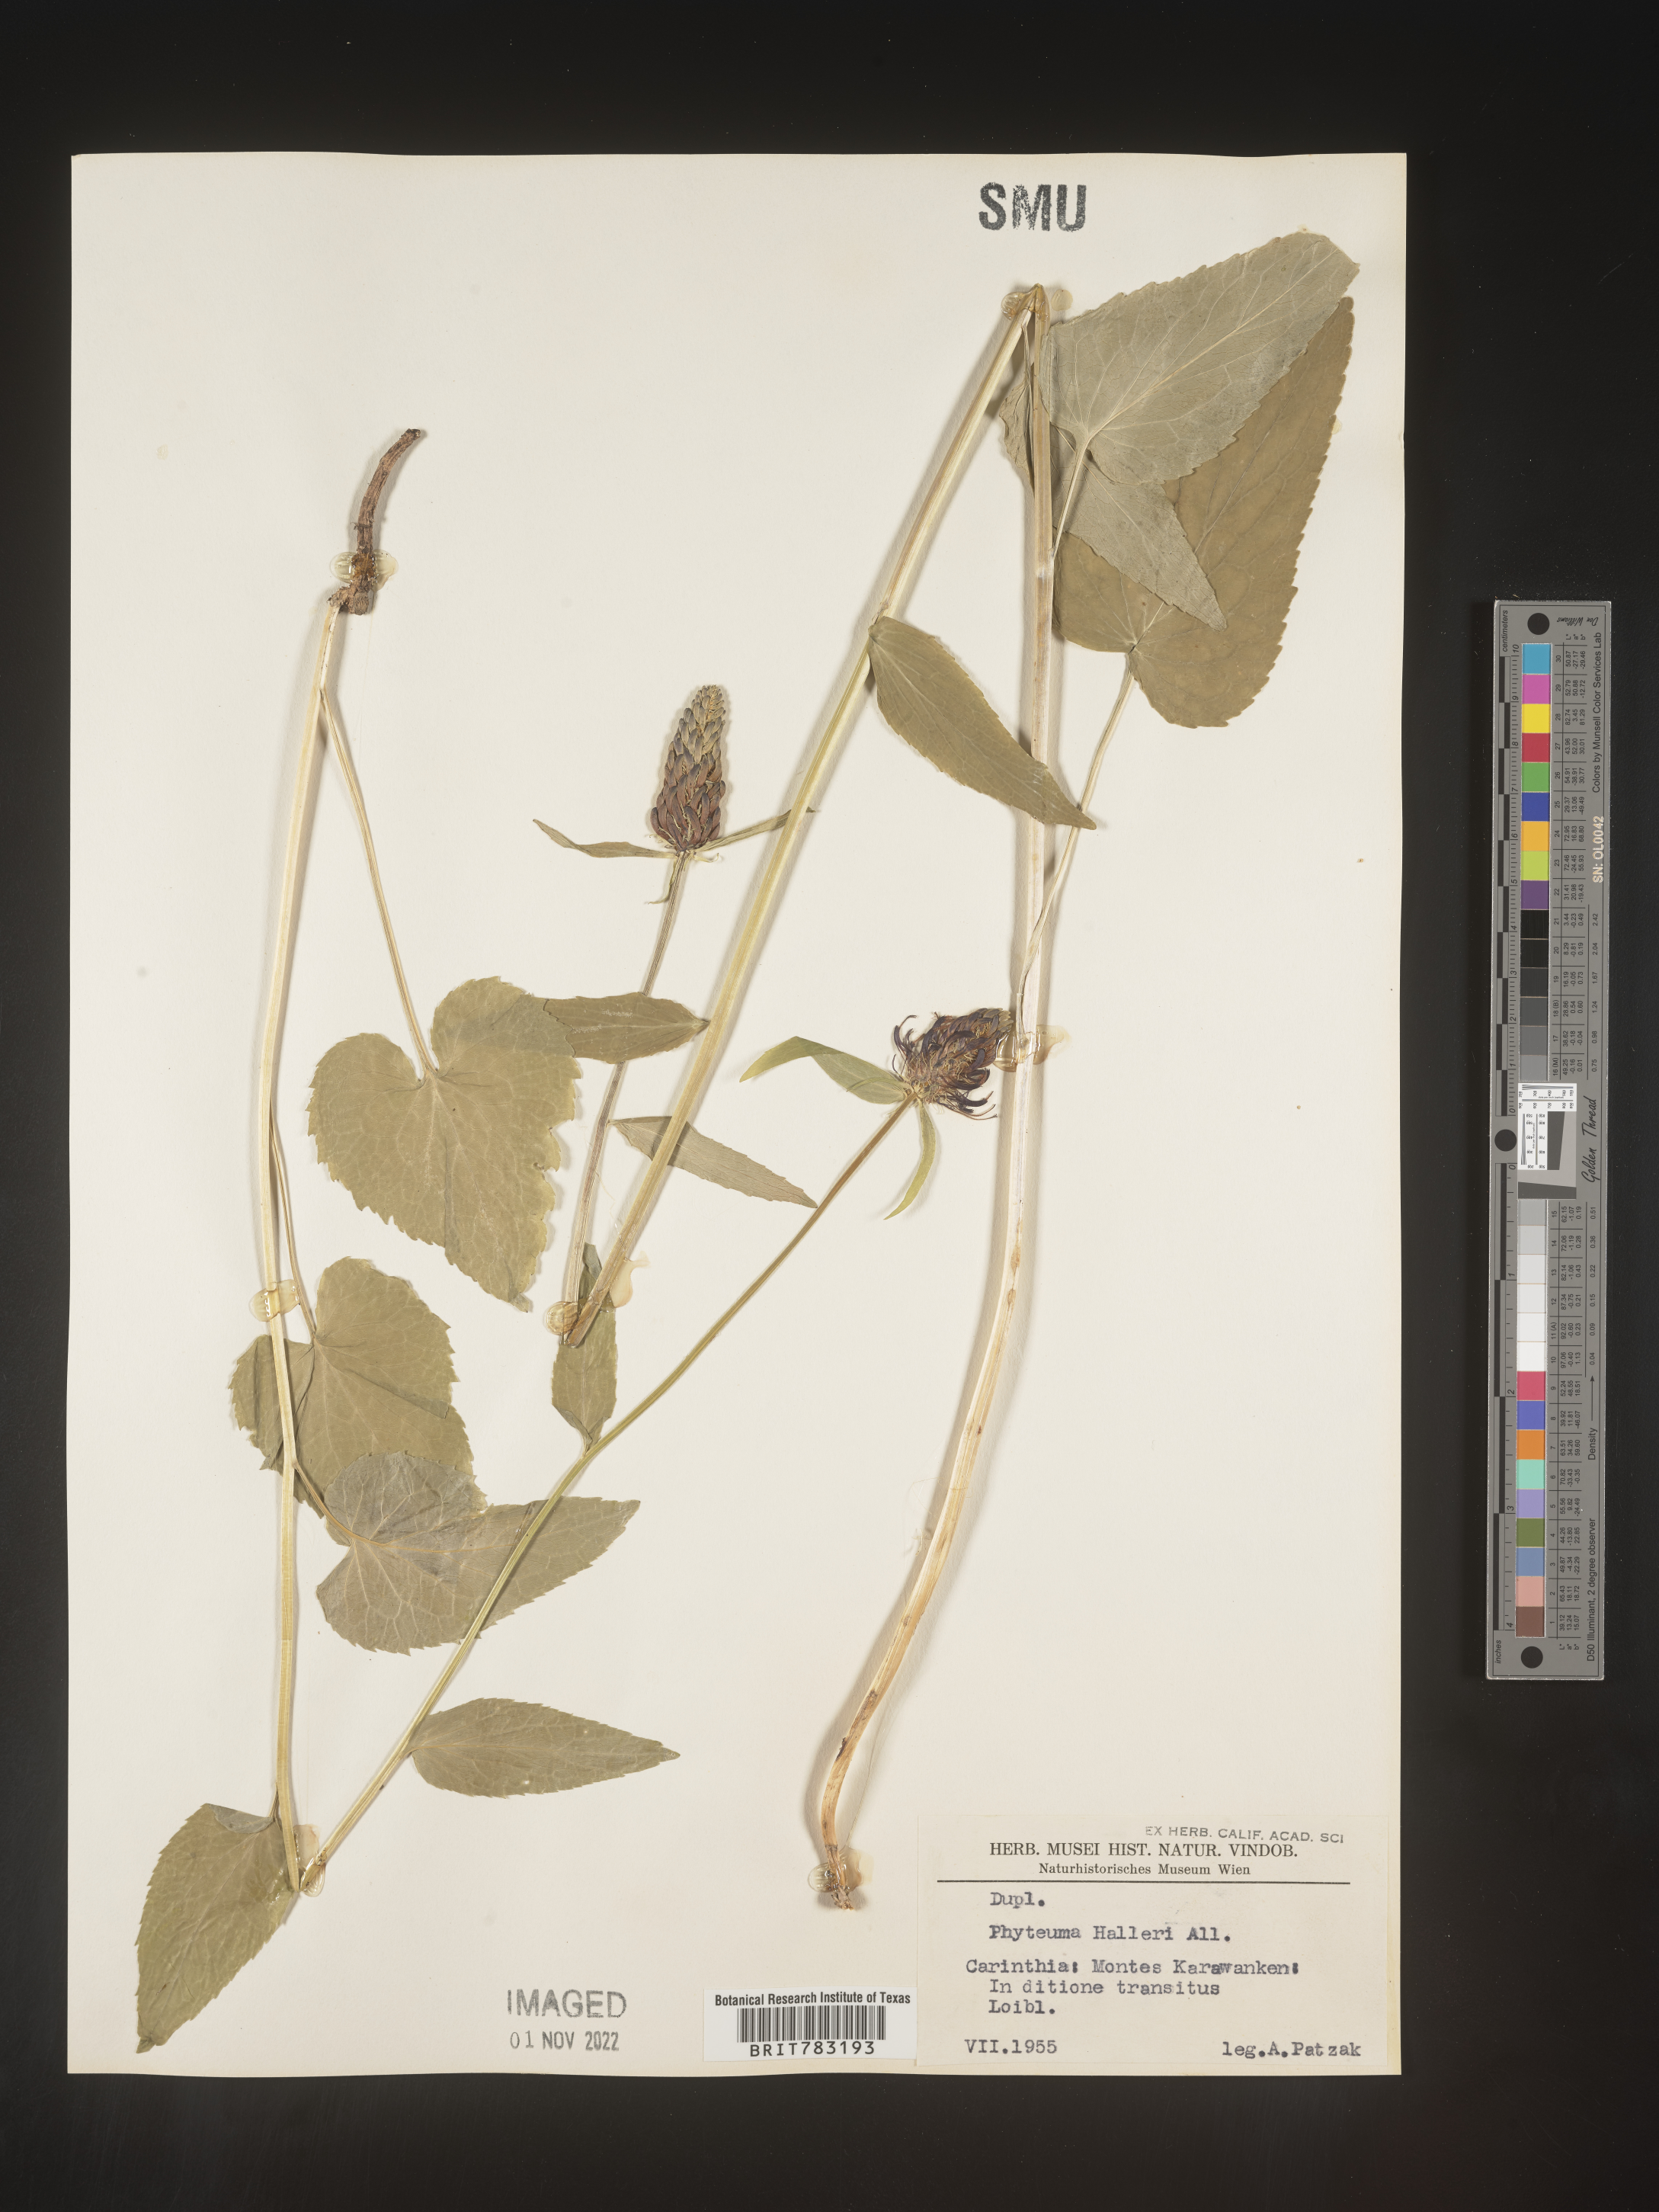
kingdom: Plantae
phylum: Tracheophyta
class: Magnoliopsida
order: Asterales
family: Campanulaceae
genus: Phyteuma
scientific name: Phyteuma
